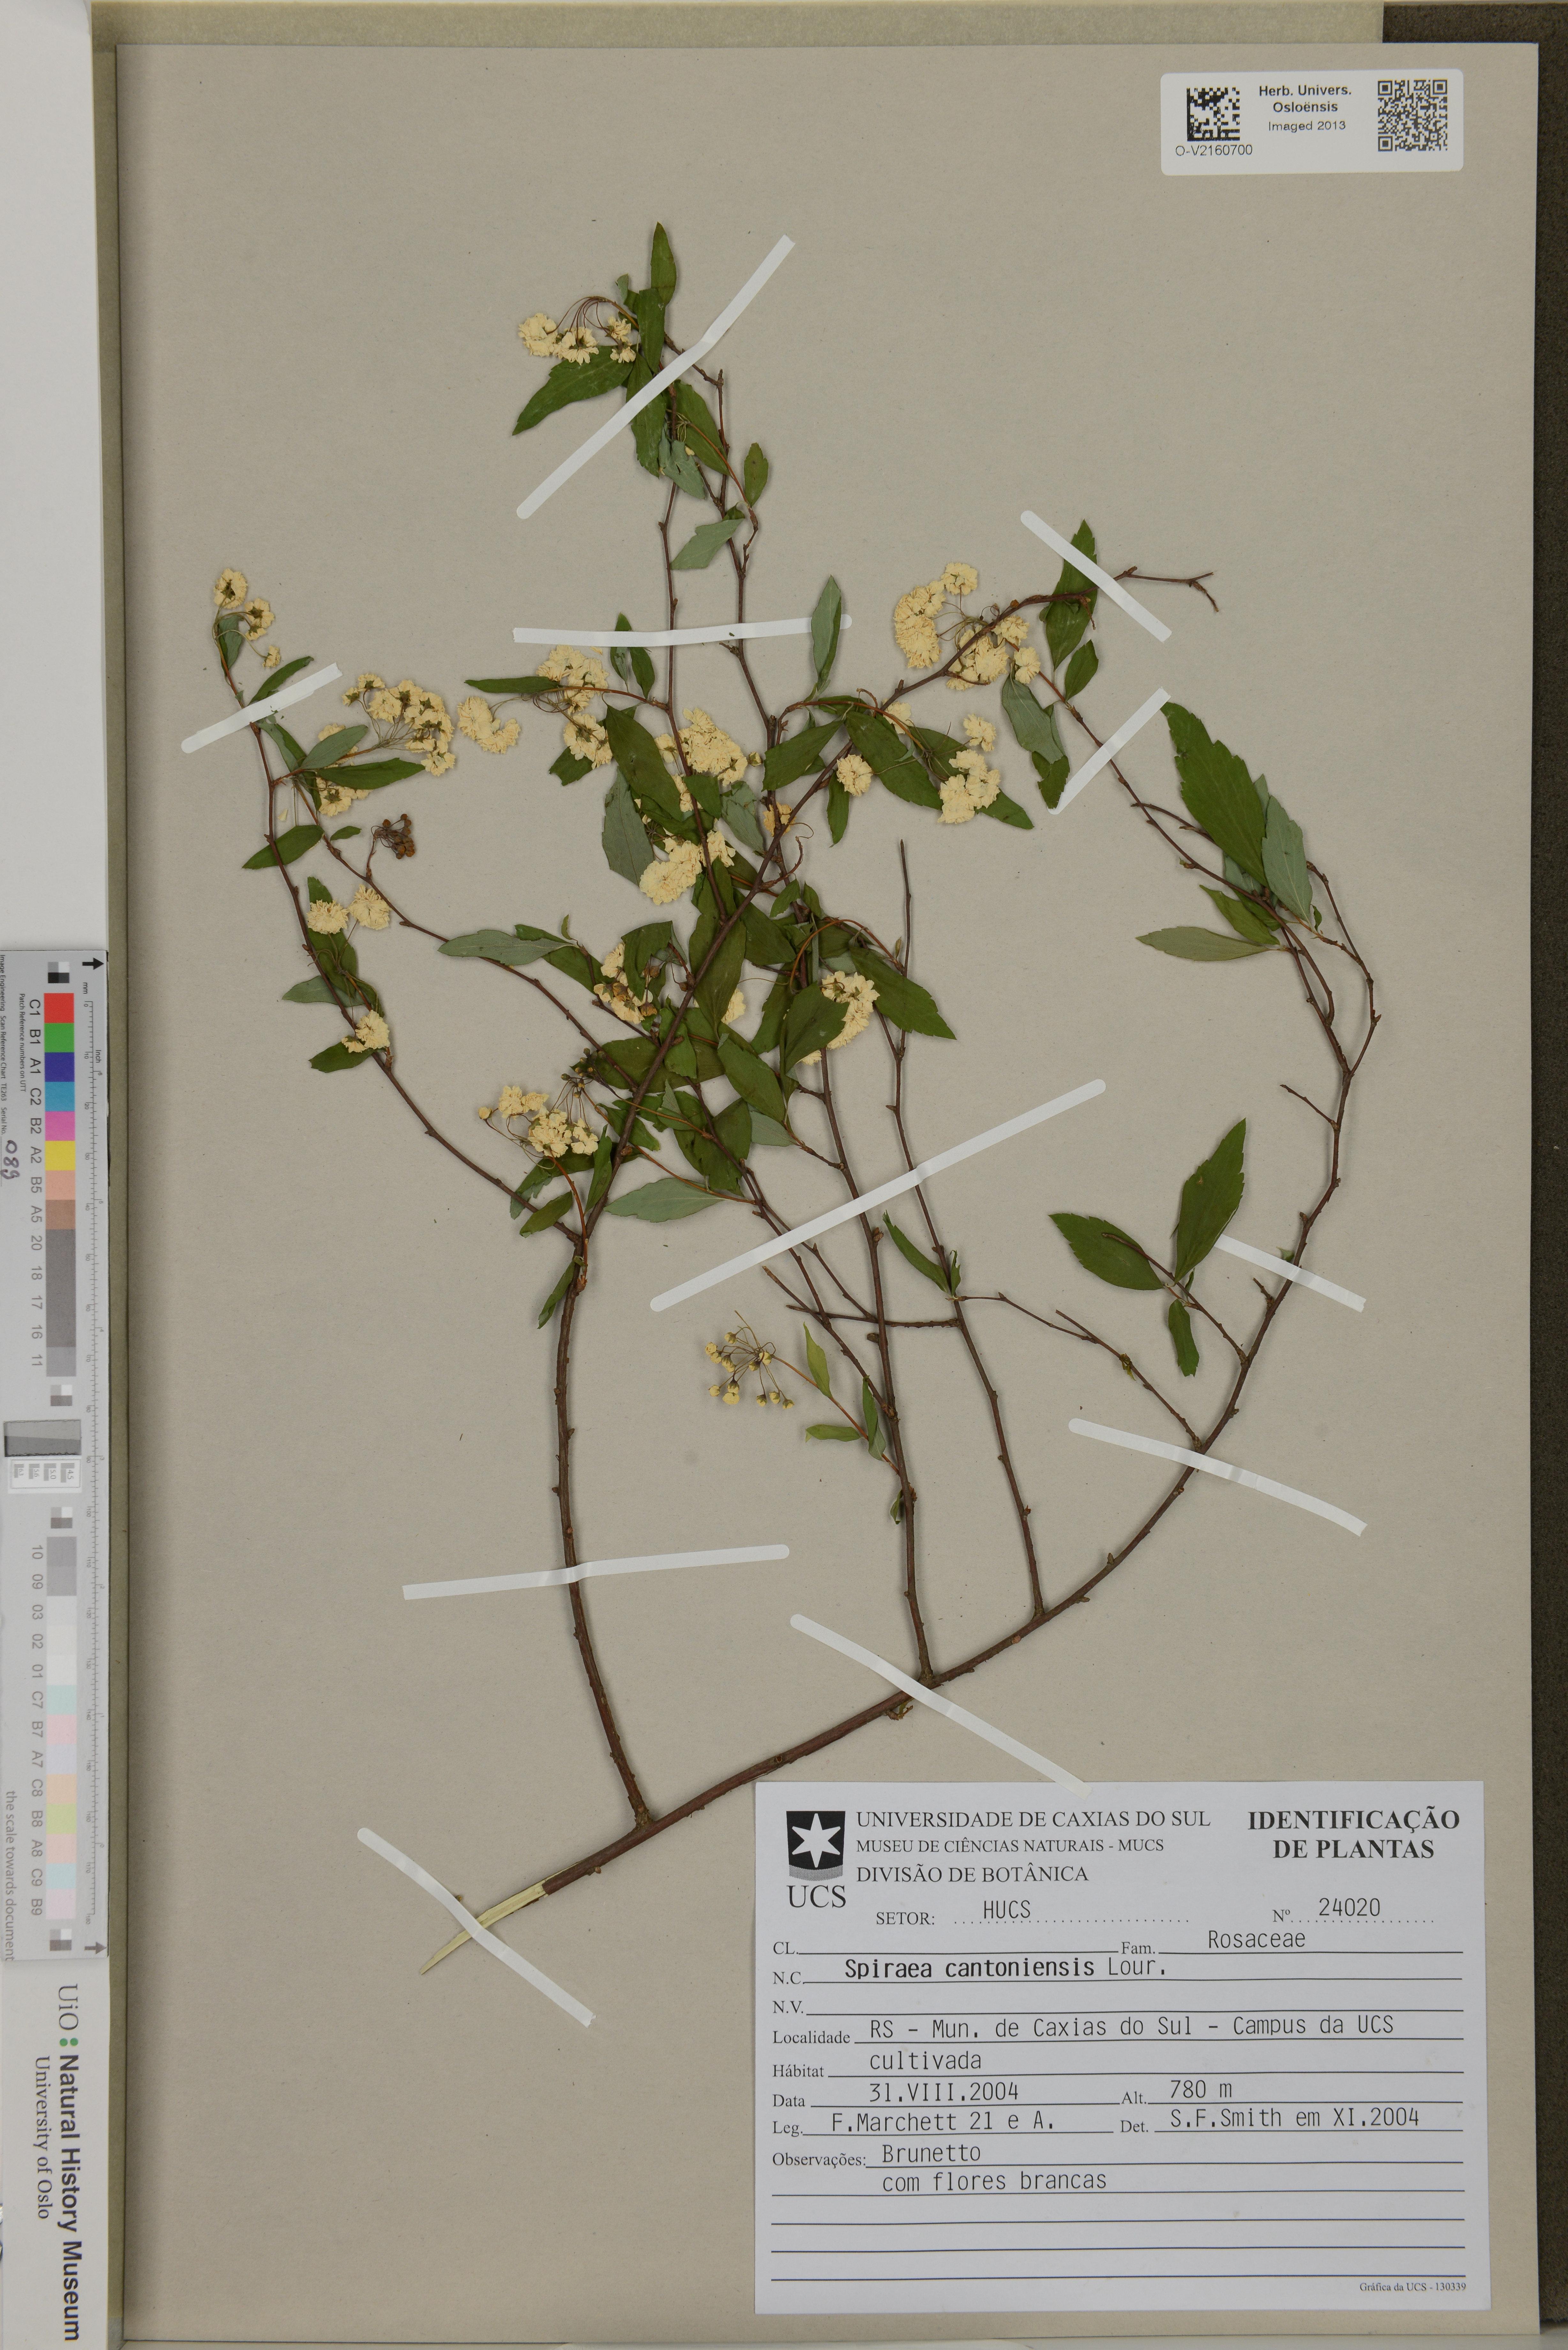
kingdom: Plantae
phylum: Tracheophyta
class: Magnoliopsida
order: Rosales
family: Rosaceae
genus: Spiraea
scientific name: Spiraea cantoniensis
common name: Reeves' meadowsweet
